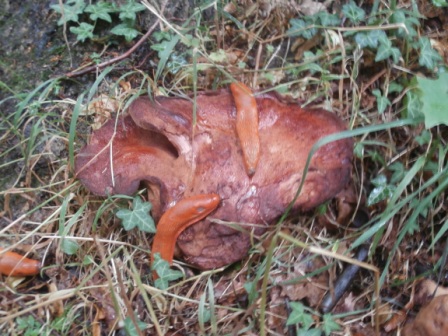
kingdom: Fungi
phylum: Basidiomycota
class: Agaricomycetes
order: Agaricales
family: Fistulinaceae
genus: Fistulina
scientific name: Fistulina hepatica
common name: oksetunge
